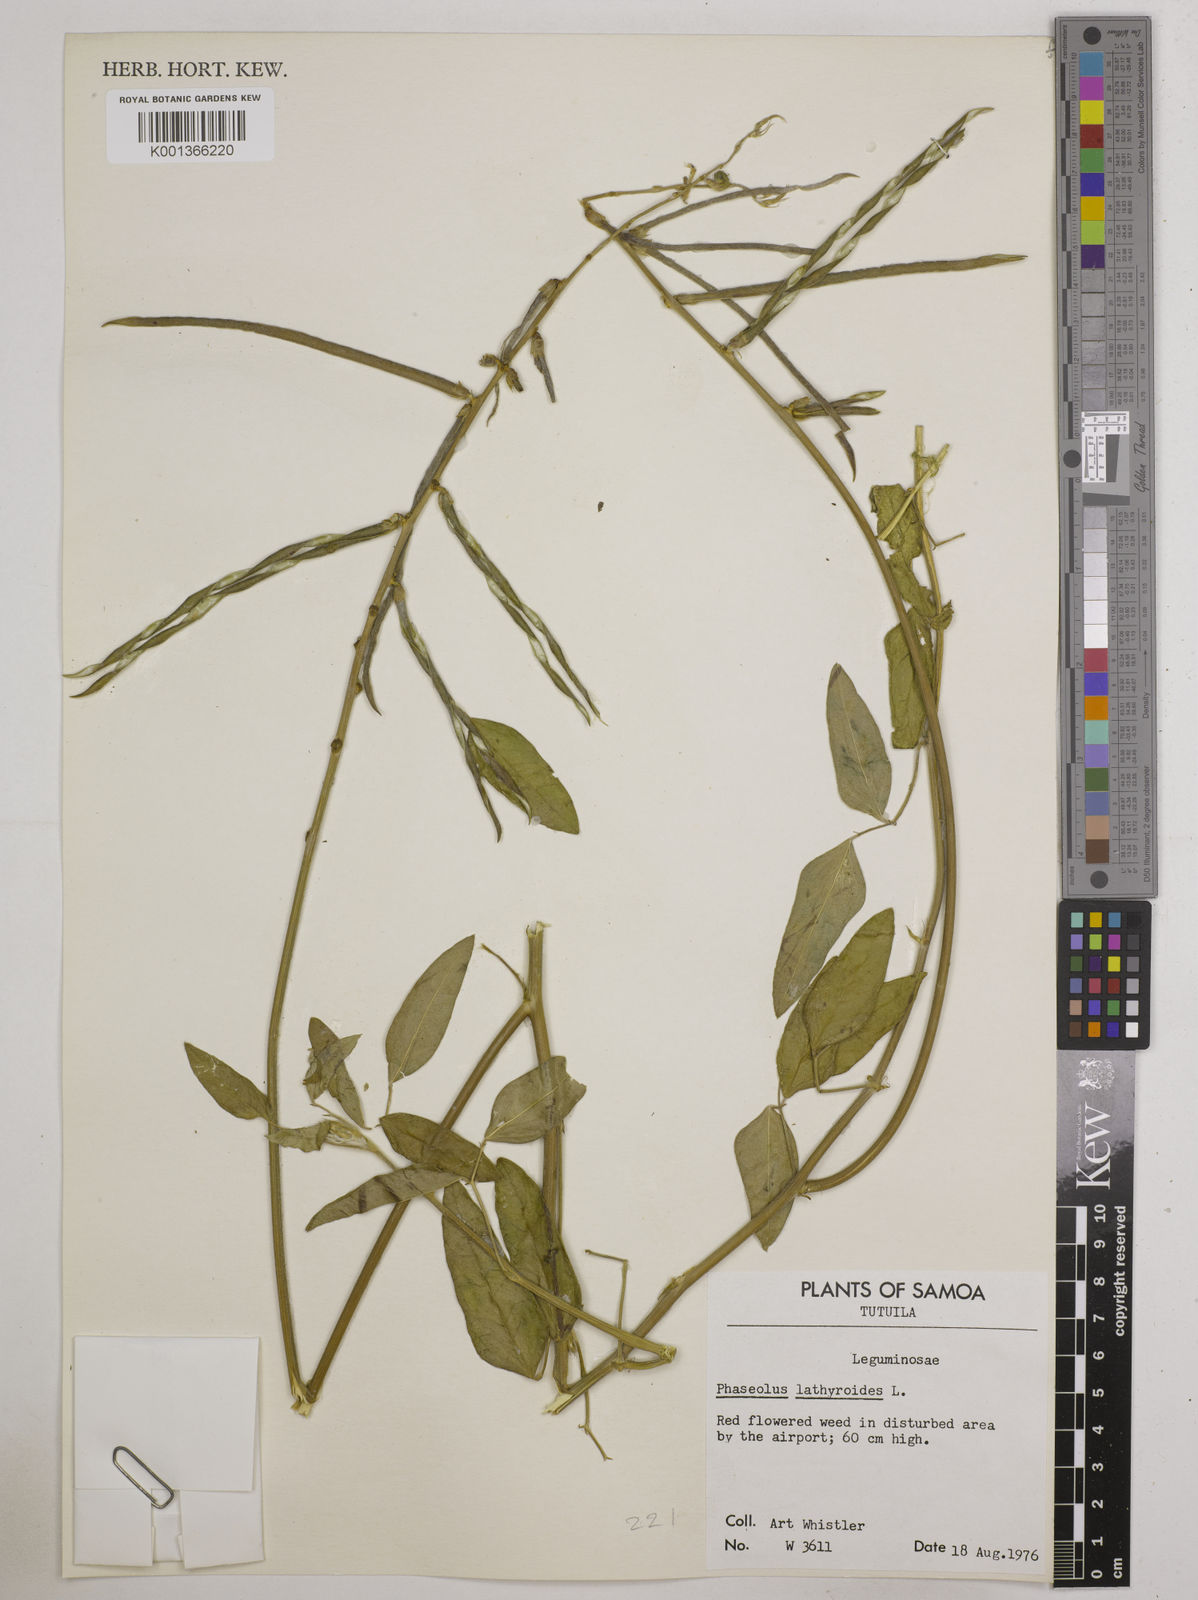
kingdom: Plantae
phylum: Tracheophyta
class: Magnoliopsida
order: Fabales
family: Fabaceae
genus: Macroptilium
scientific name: Macroptilium lathyroides
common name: Wild bushbean
